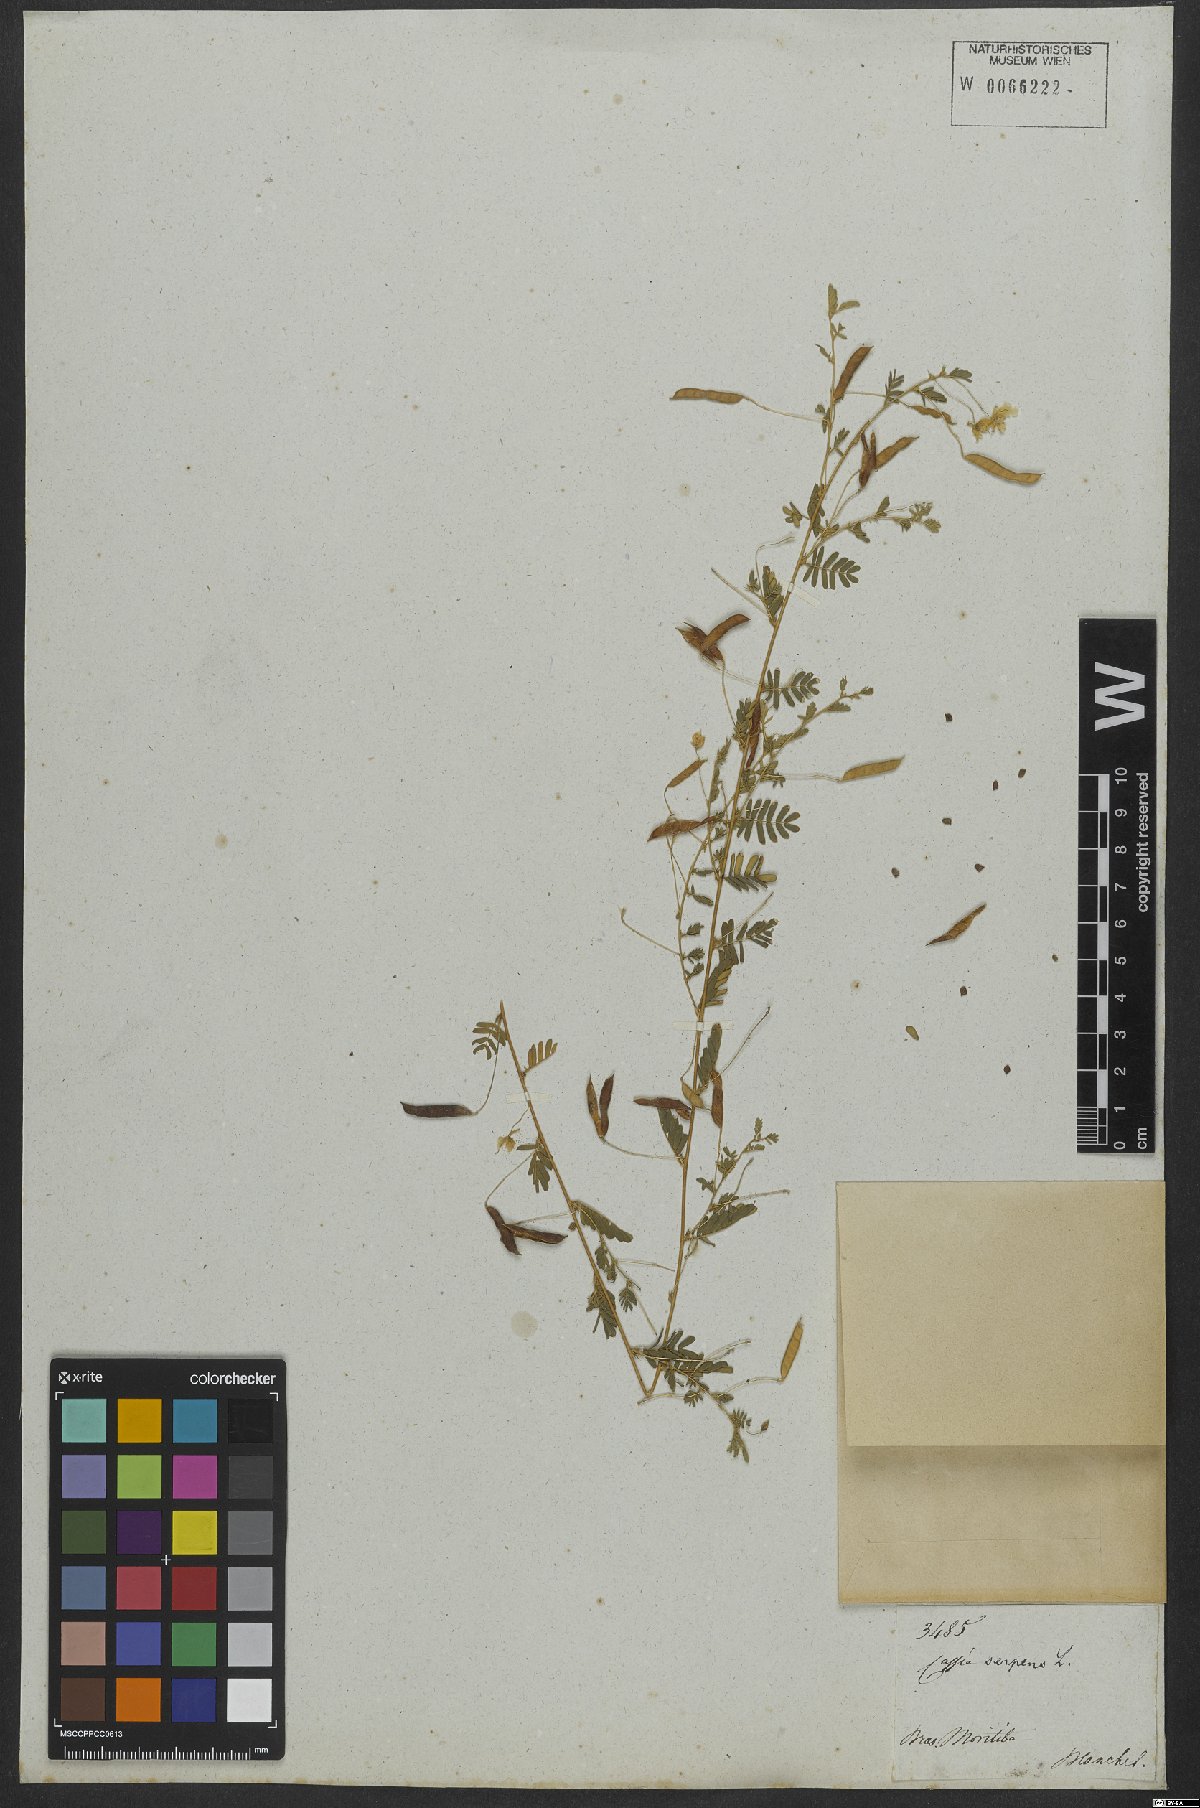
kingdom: Plantae
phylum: Tracheophyta
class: Magnoliopsida
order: Fabales
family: Fabaceae
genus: Chamaecrista
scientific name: Chamaecrista serpens
